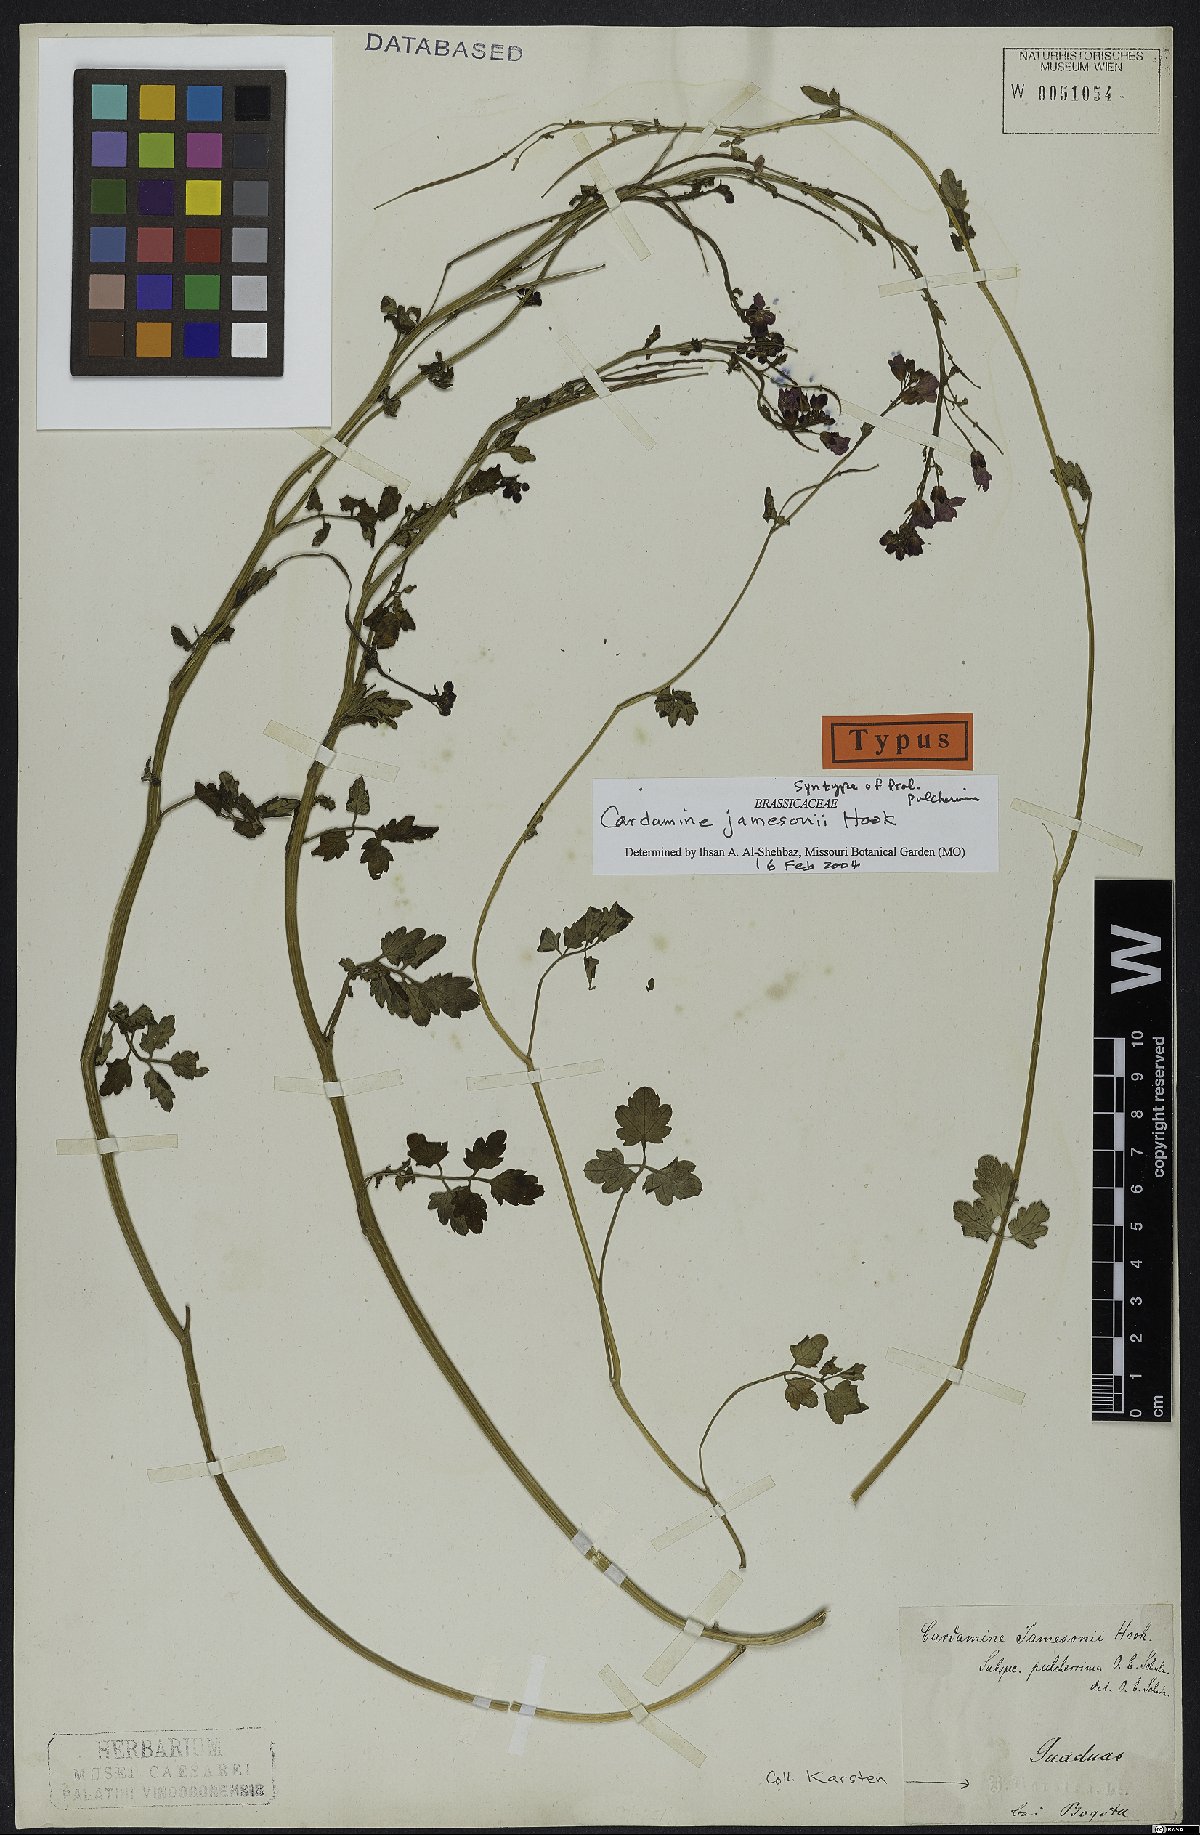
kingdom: Plantae
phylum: Tracheophyta
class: Magnoliopsida
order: Brassicales
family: Brassicaceae
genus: Cardamine
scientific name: Cardamine jamesonii
